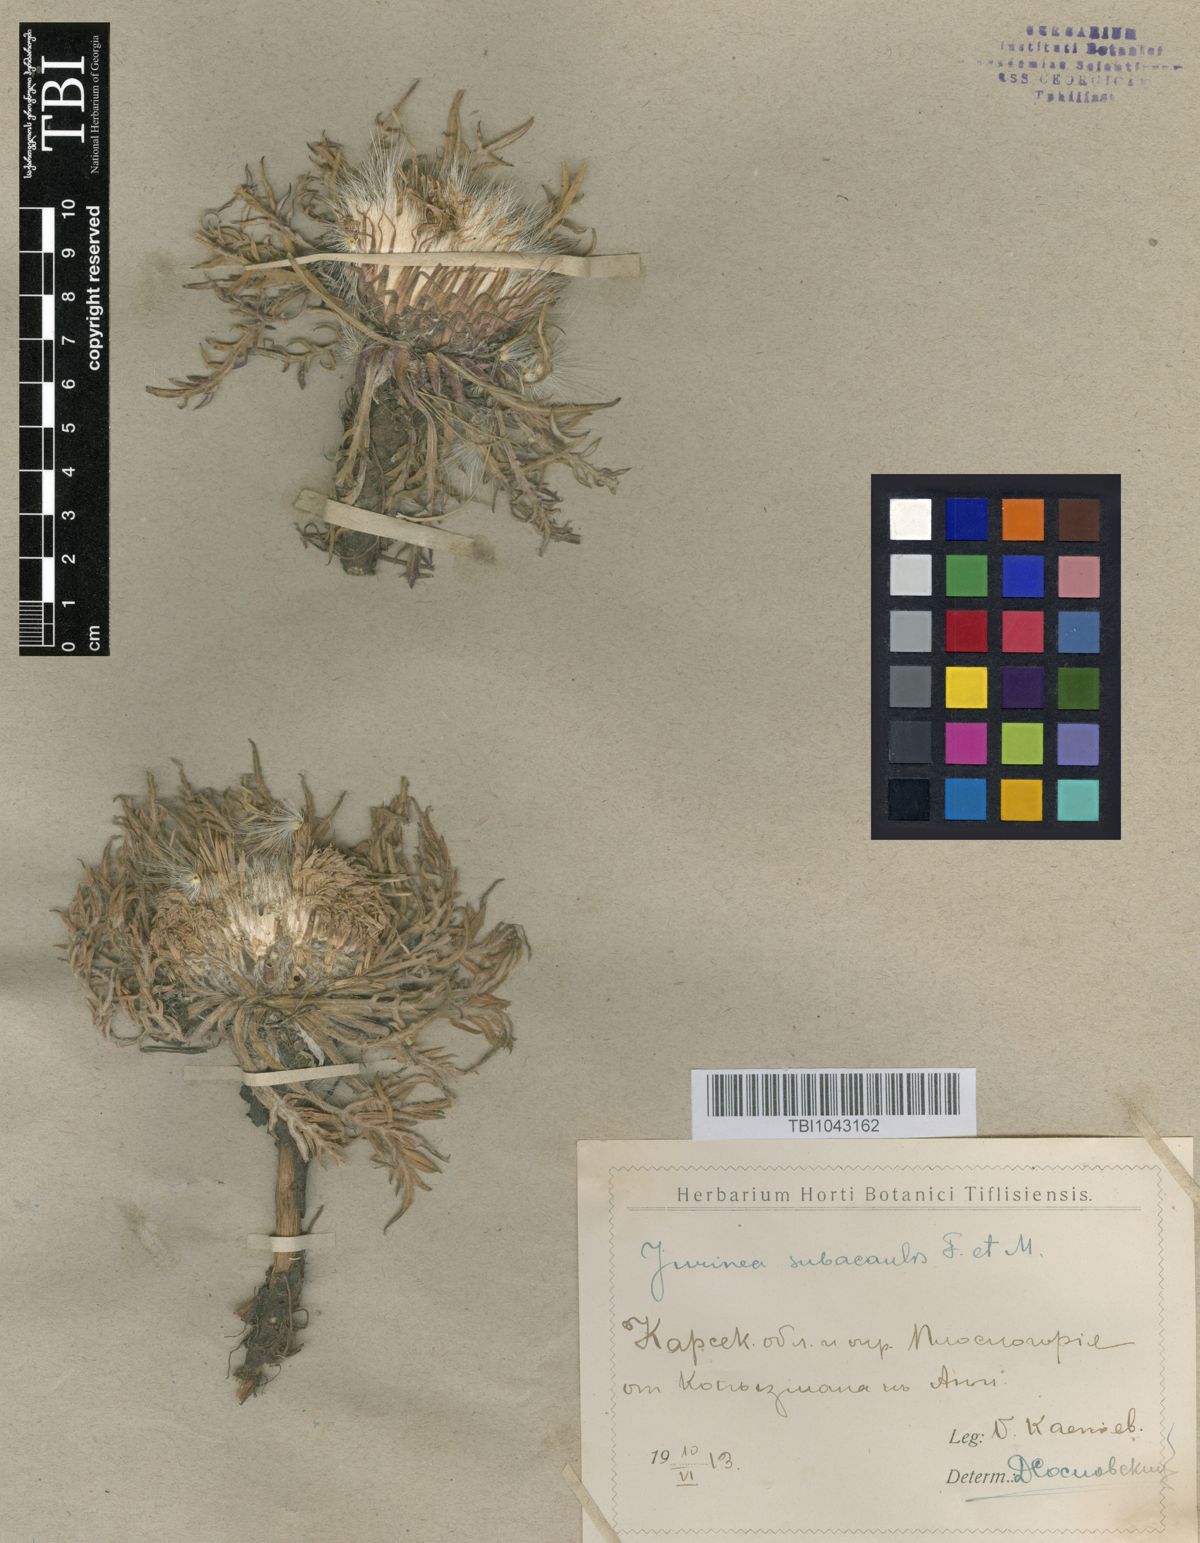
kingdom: Plantae
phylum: Tracheophyta
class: Magnoliopsida
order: Asterales
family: Asteraceae
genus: Jurinea
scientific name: Jurinea moschus
